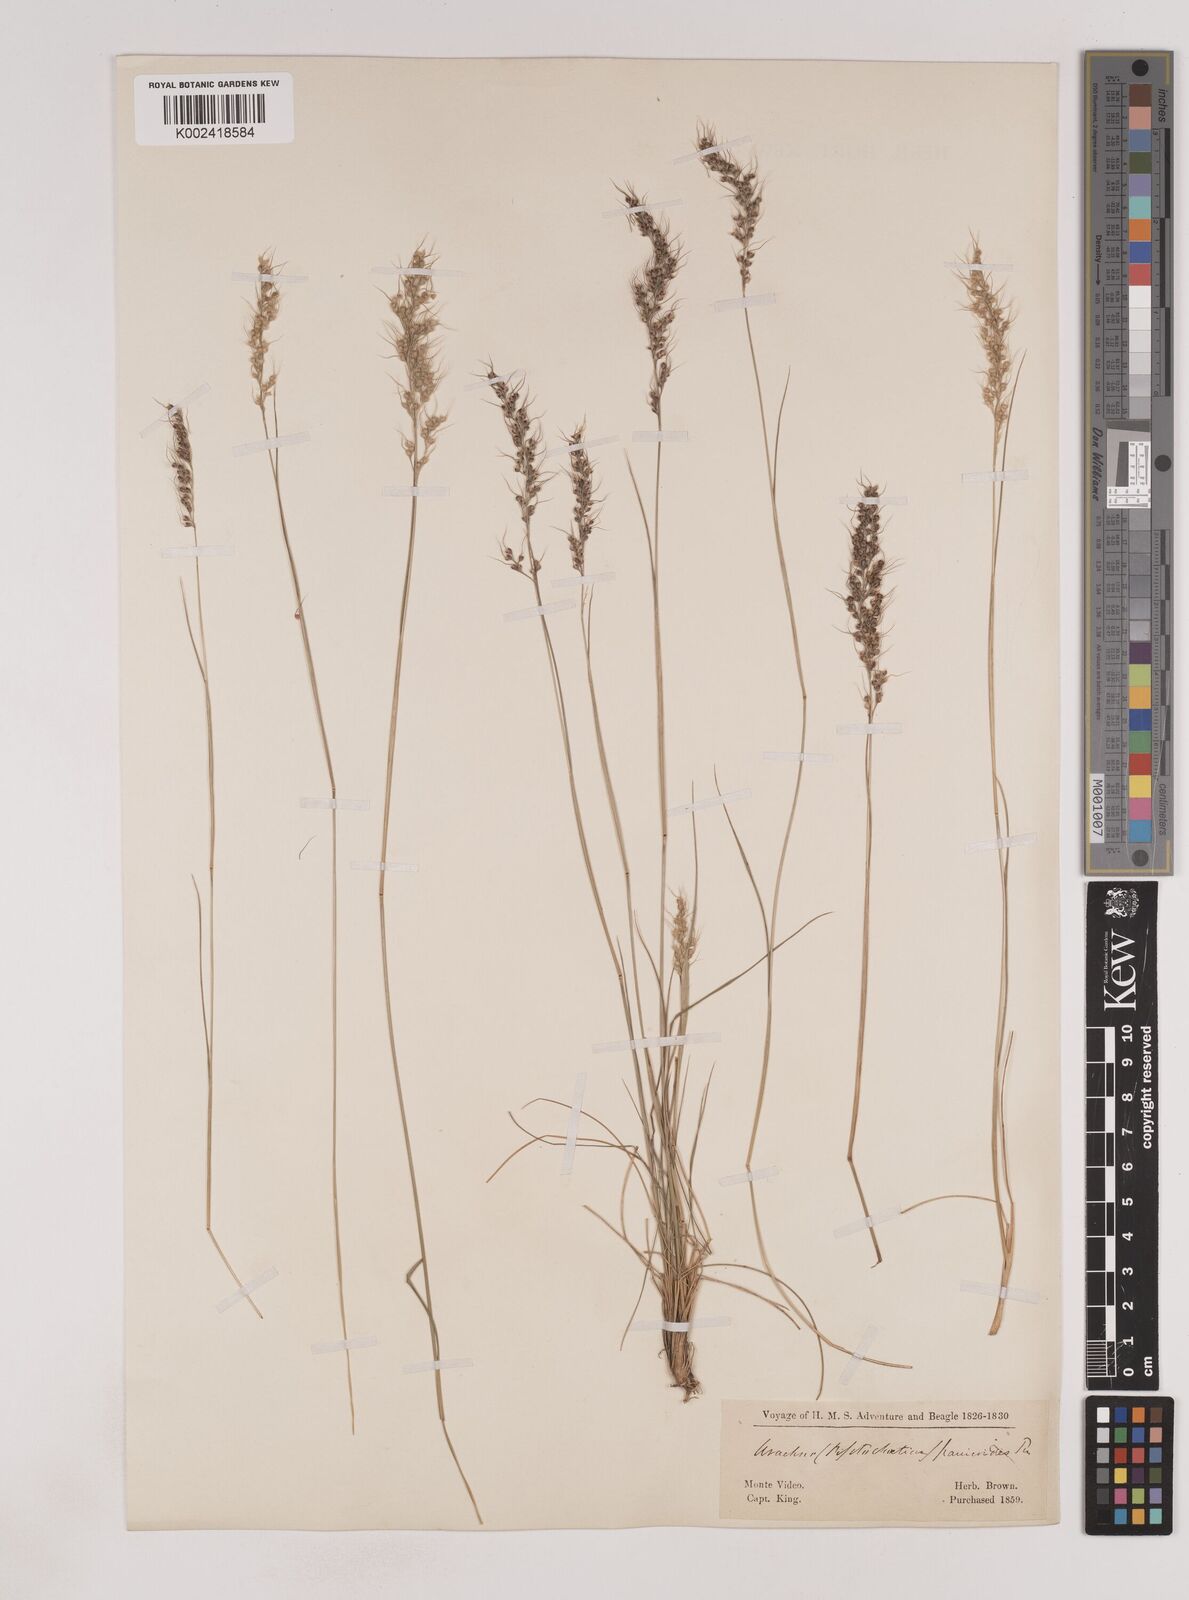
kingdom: Plantae
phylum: Tracheophyta
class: Liliopsida
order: Poales
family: Poaceae
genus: Piptochaetium
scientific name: Piptochaetium montevidense
